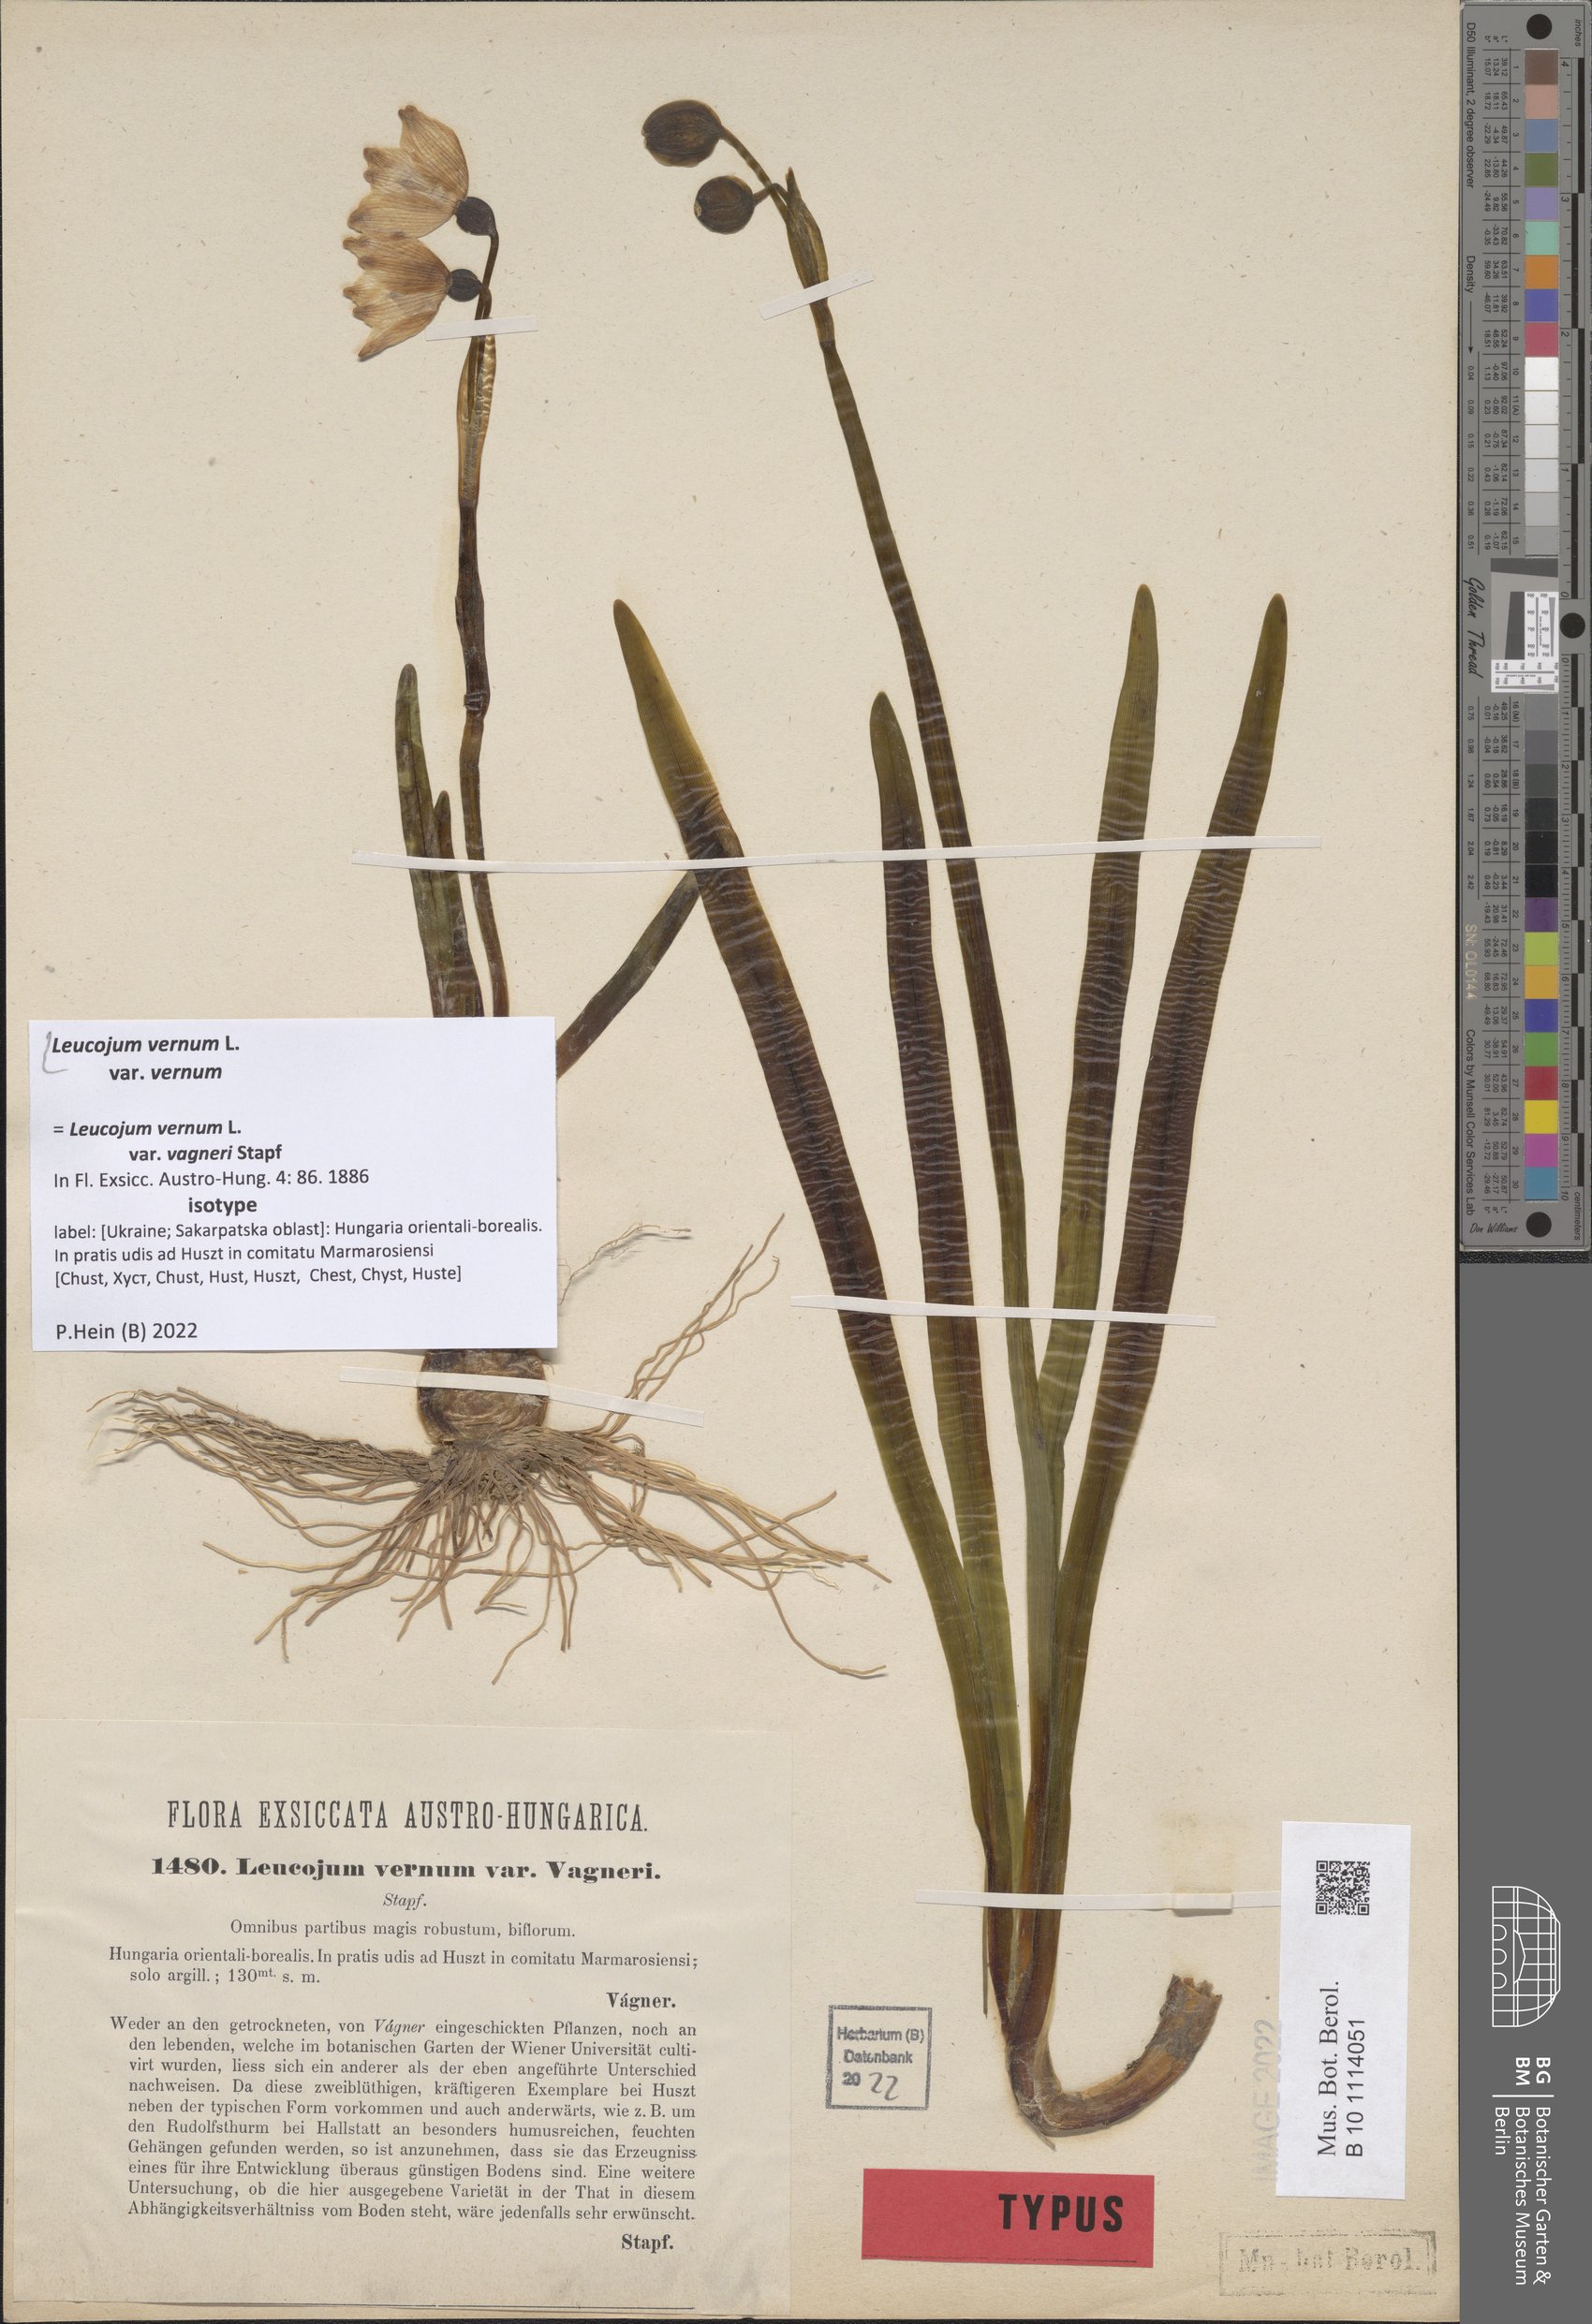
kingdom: Plantae
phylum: Tracheophyta
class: Liliopsida
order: Asparagales
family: Amaryllidaceae
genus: Leucojum
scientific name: Leucojum vernum
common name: Spring snowflake
